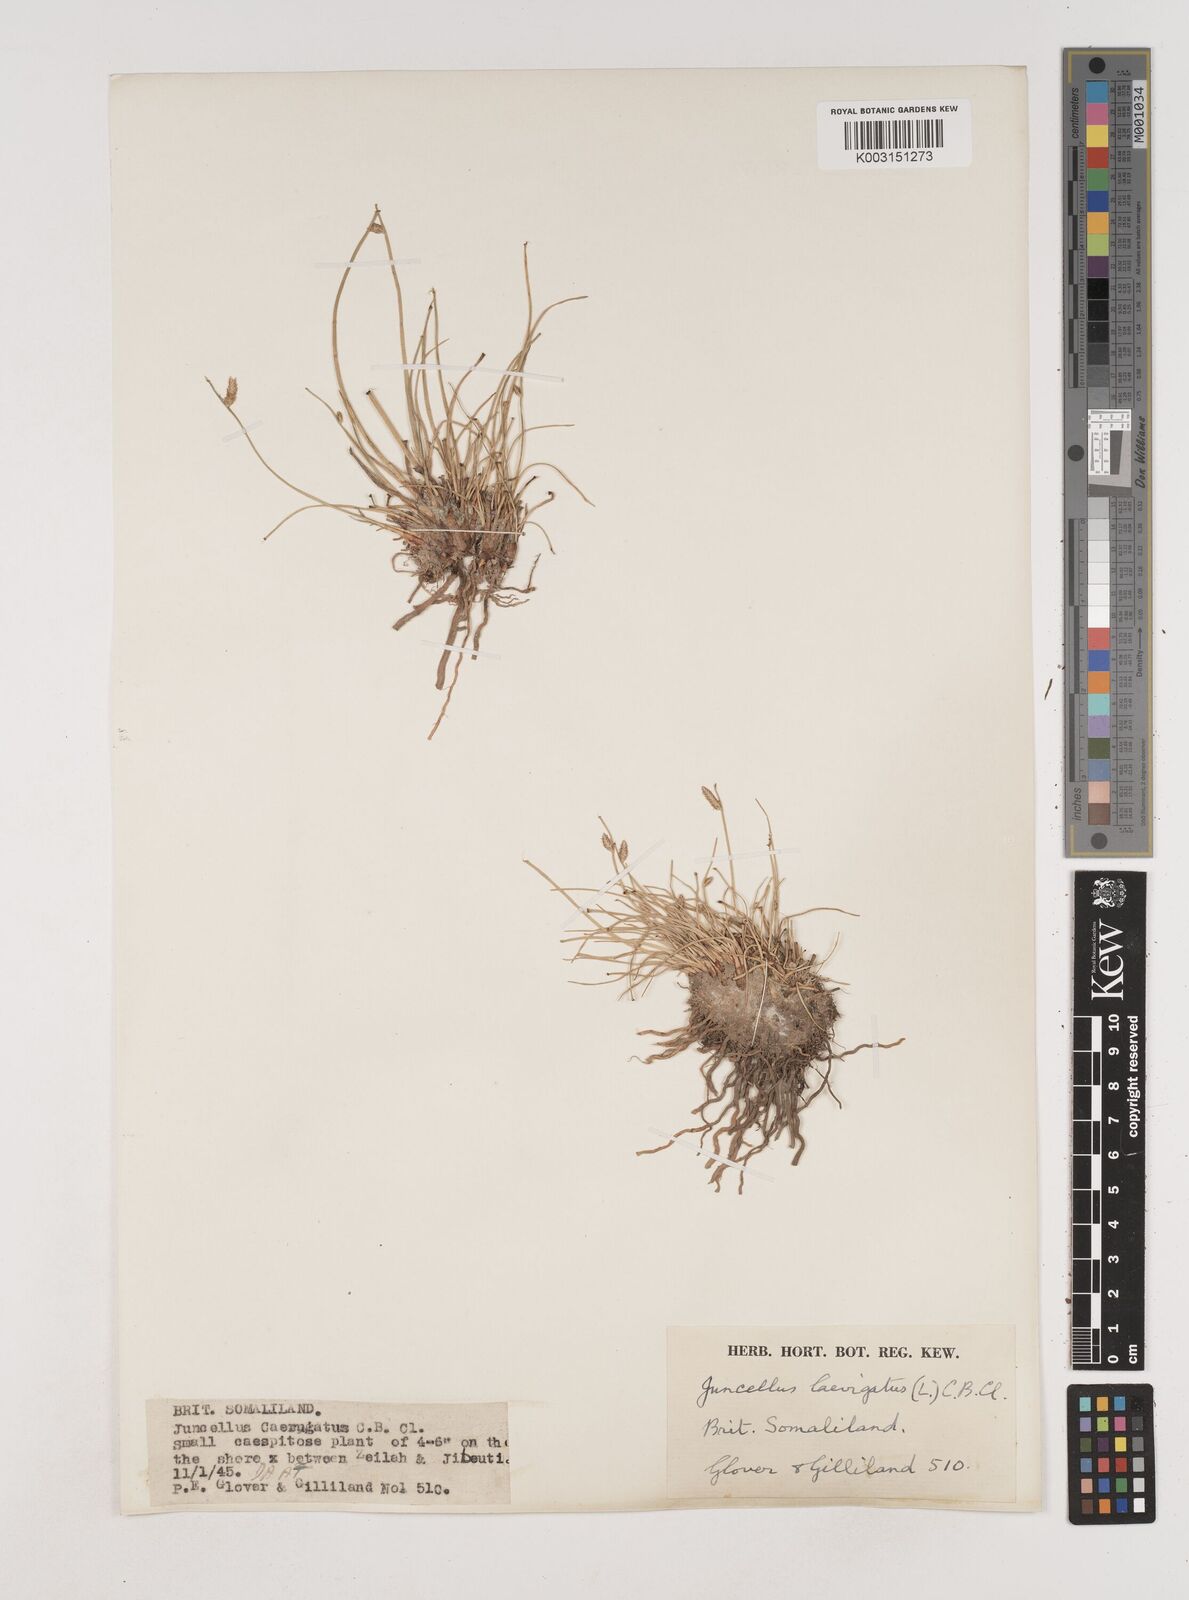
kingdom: Plantae
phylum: Tracheophyta
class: Liliopsida
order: Poales
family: Cyperaceae
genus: Cyperus
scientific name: Cyperus laevigatus
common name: Smooth flat sedge
